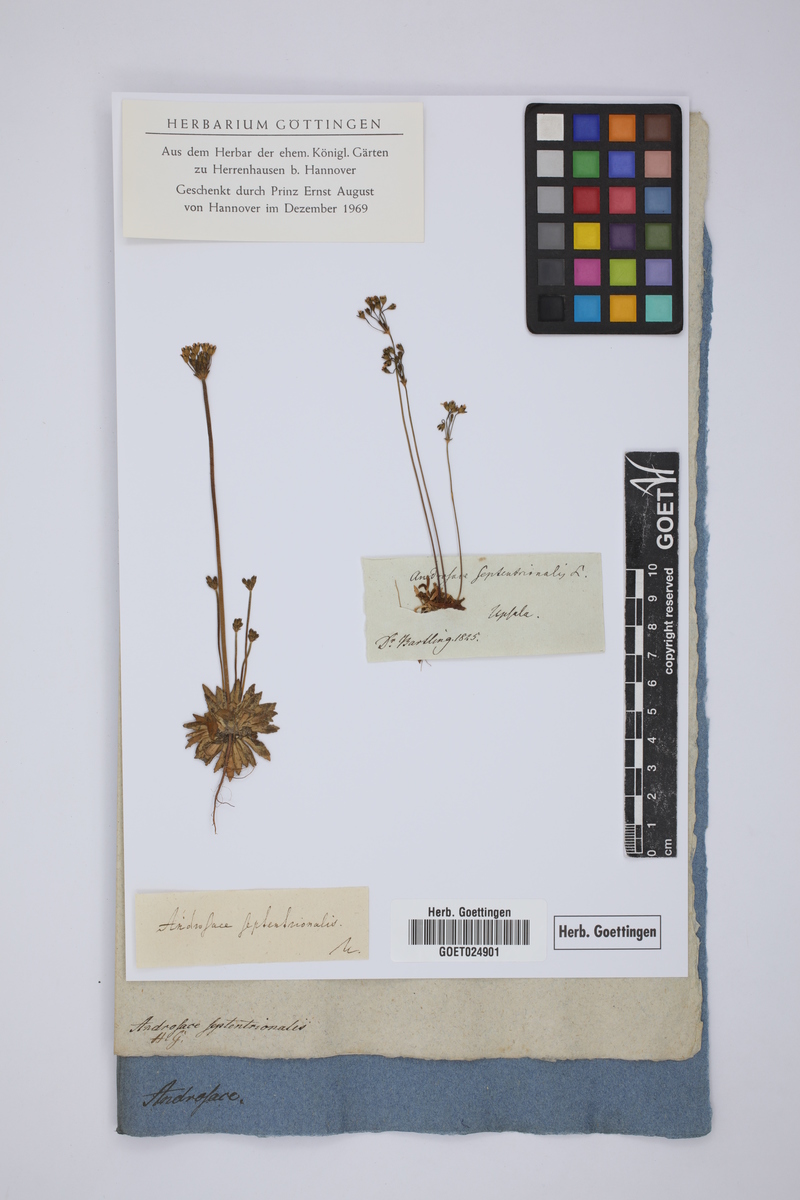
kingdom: Plantae
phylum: Tracheophyta
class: Magnoliopsida
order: Ericales
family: Primulaceae
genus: Androsace
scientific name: Androsace septentrionalis
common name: Hairy northern fairy-candelabra
